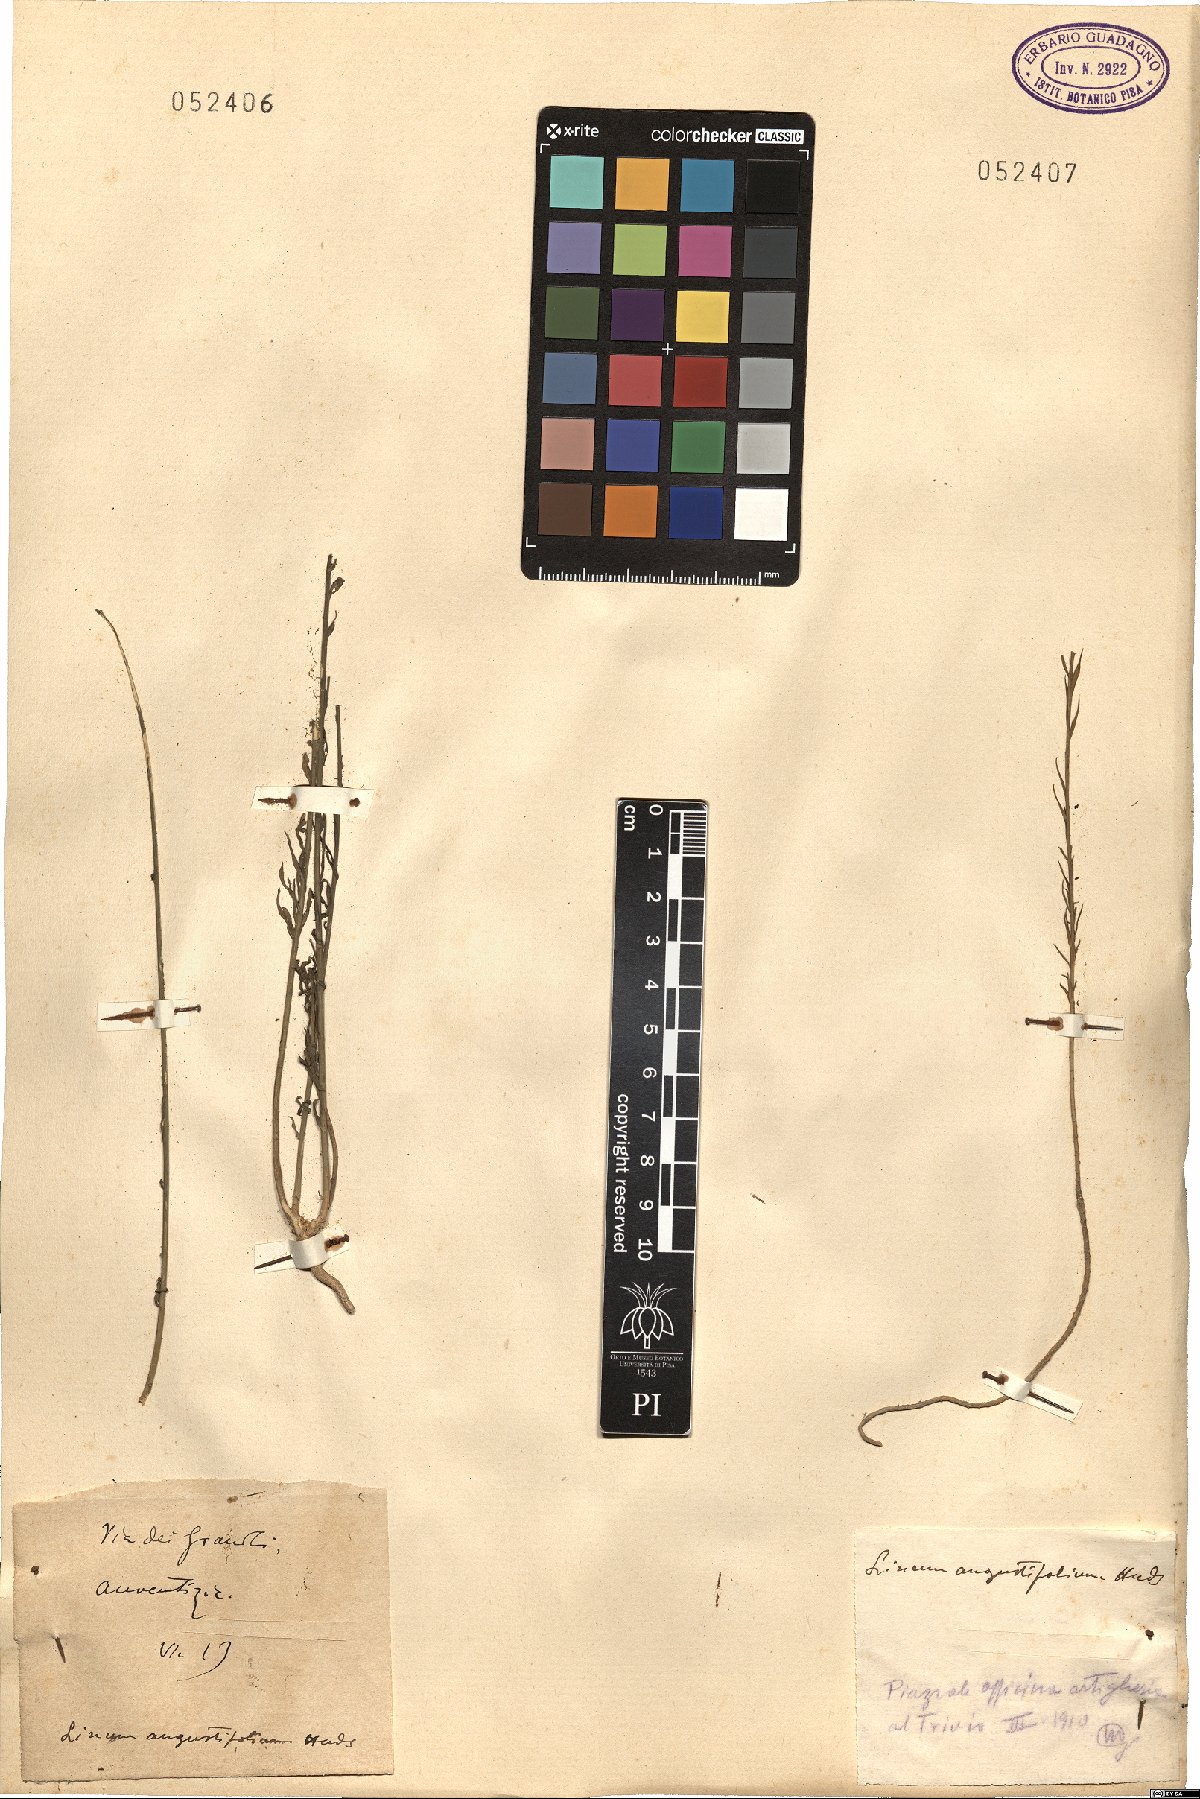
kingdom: Plantae
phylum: Tracheophyta
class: Magnoliopsida
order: Malpighiales
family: Linaceae
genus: Linum
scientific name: Linum bienne
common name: Pale flax
